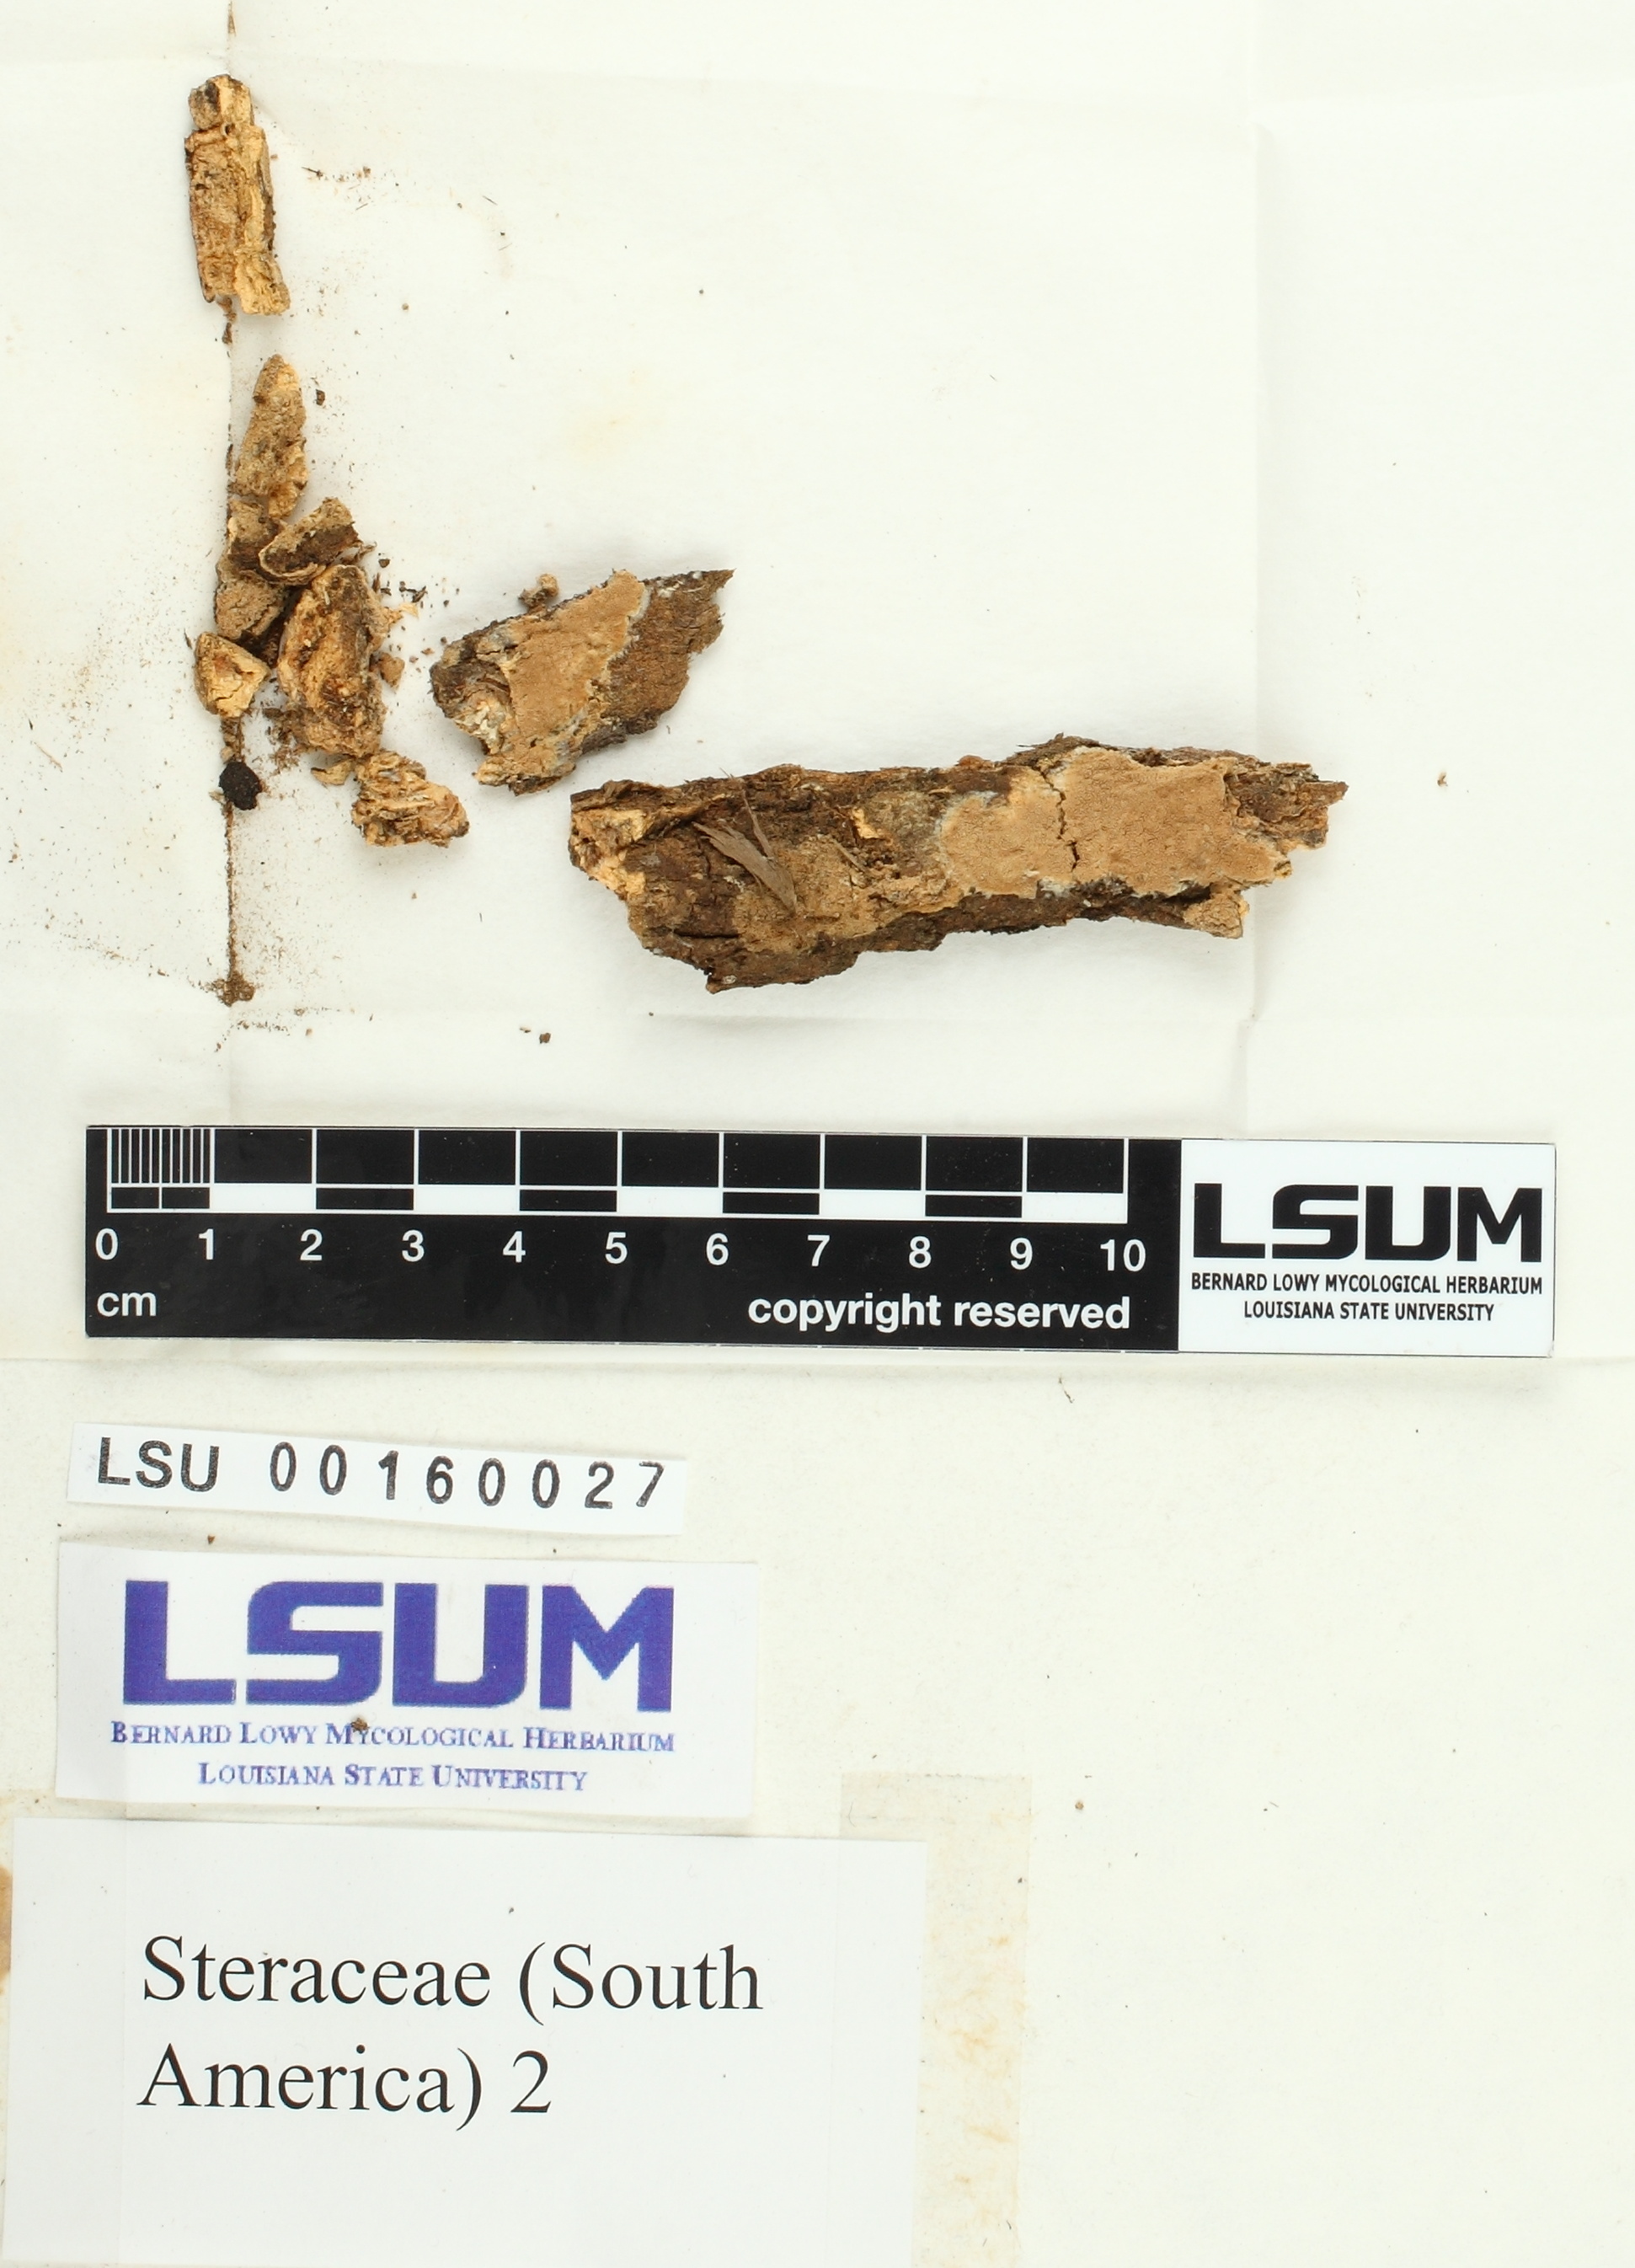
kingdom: Fungi
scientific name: Fungi
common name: Fungi
